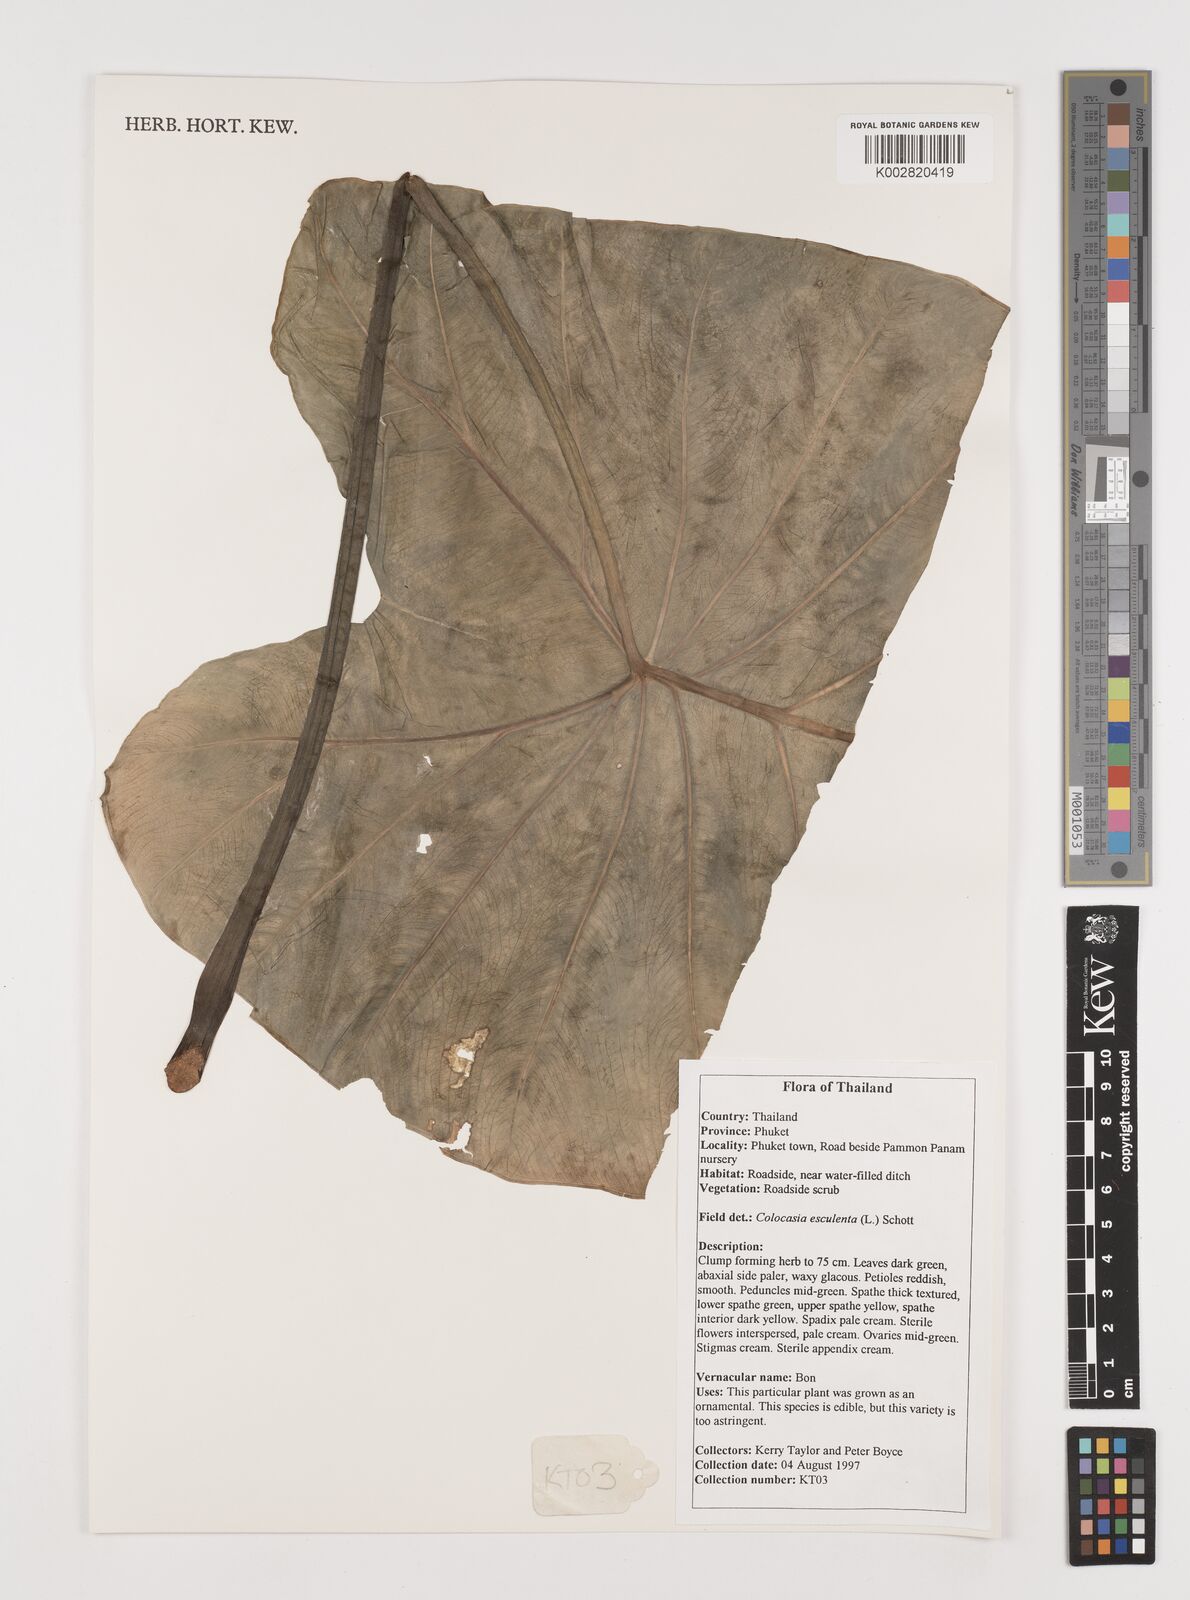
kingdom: Plantae
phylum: Tracheophyta
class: Liliopsida
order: Alismatales
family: Araceae
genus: Colocasia
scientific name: Colocasia esculenta
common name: Taro
